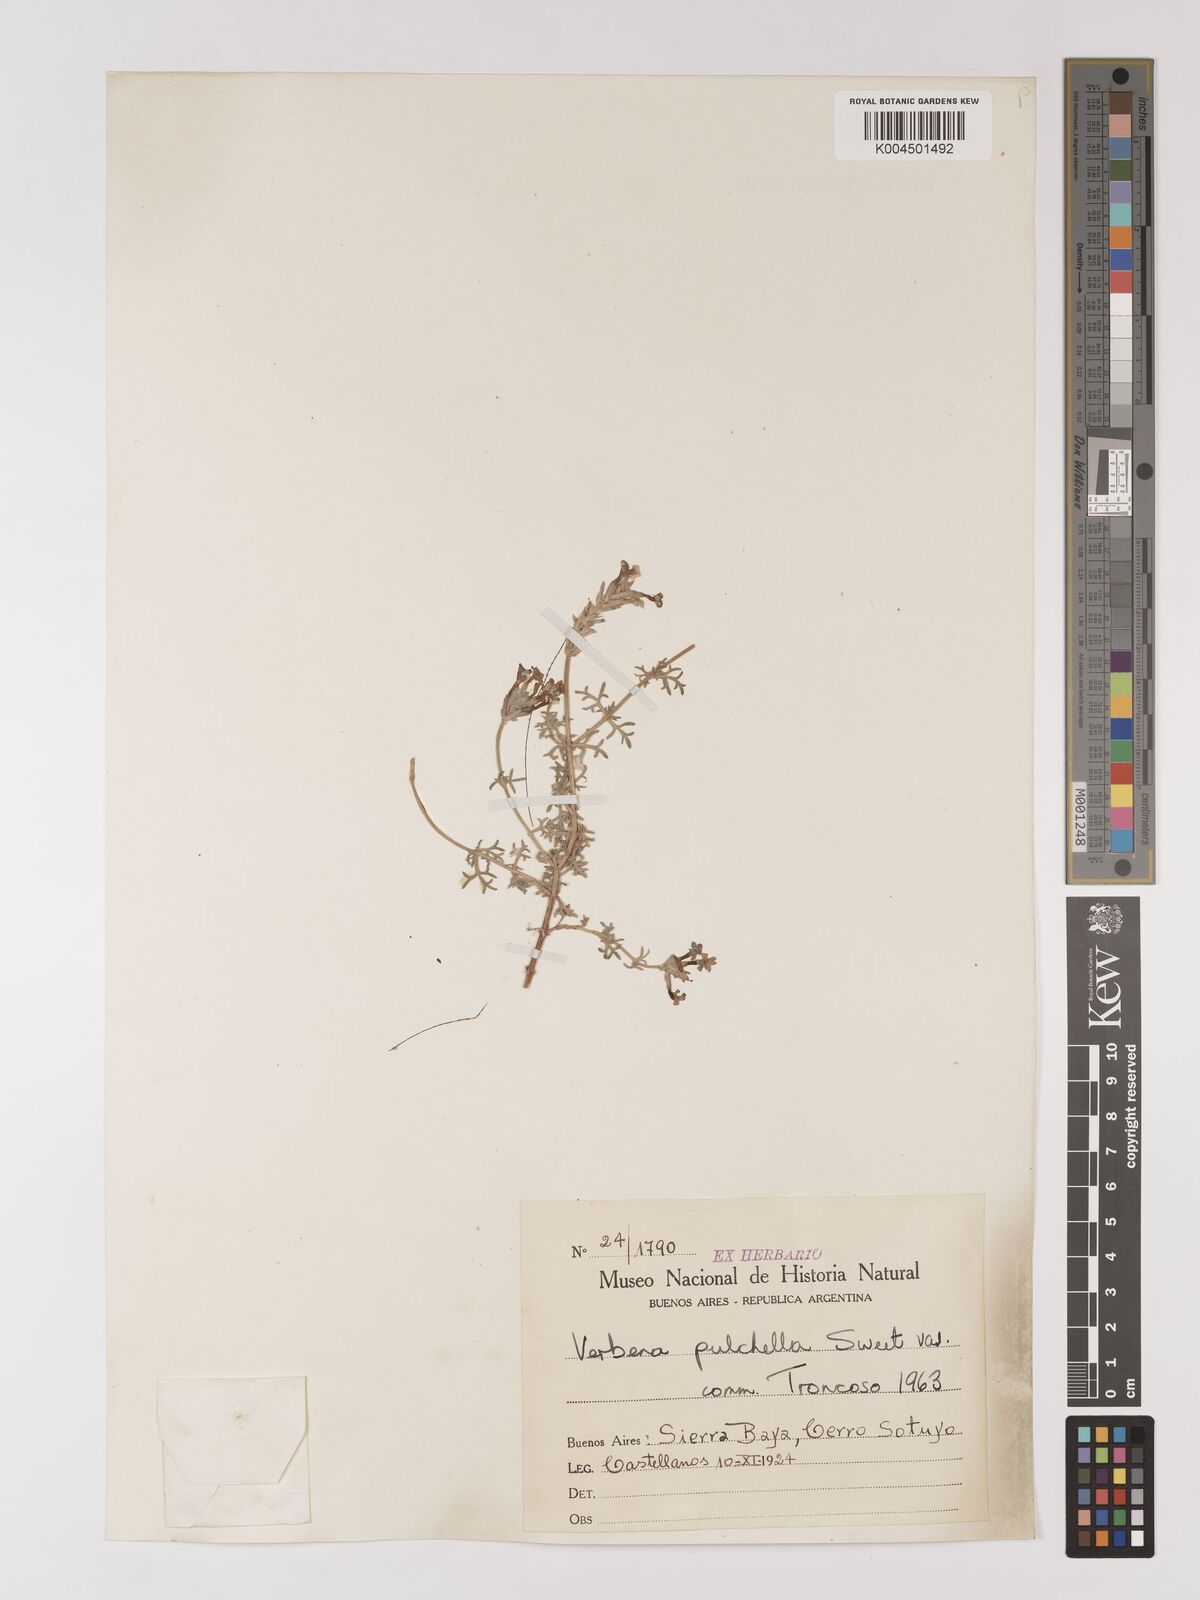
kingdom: Plantae
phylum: Tracheophyta
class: Magnoliopsida
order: Lamiales
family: Verbenaceae
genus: Verbena
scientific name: Verbena tenera
